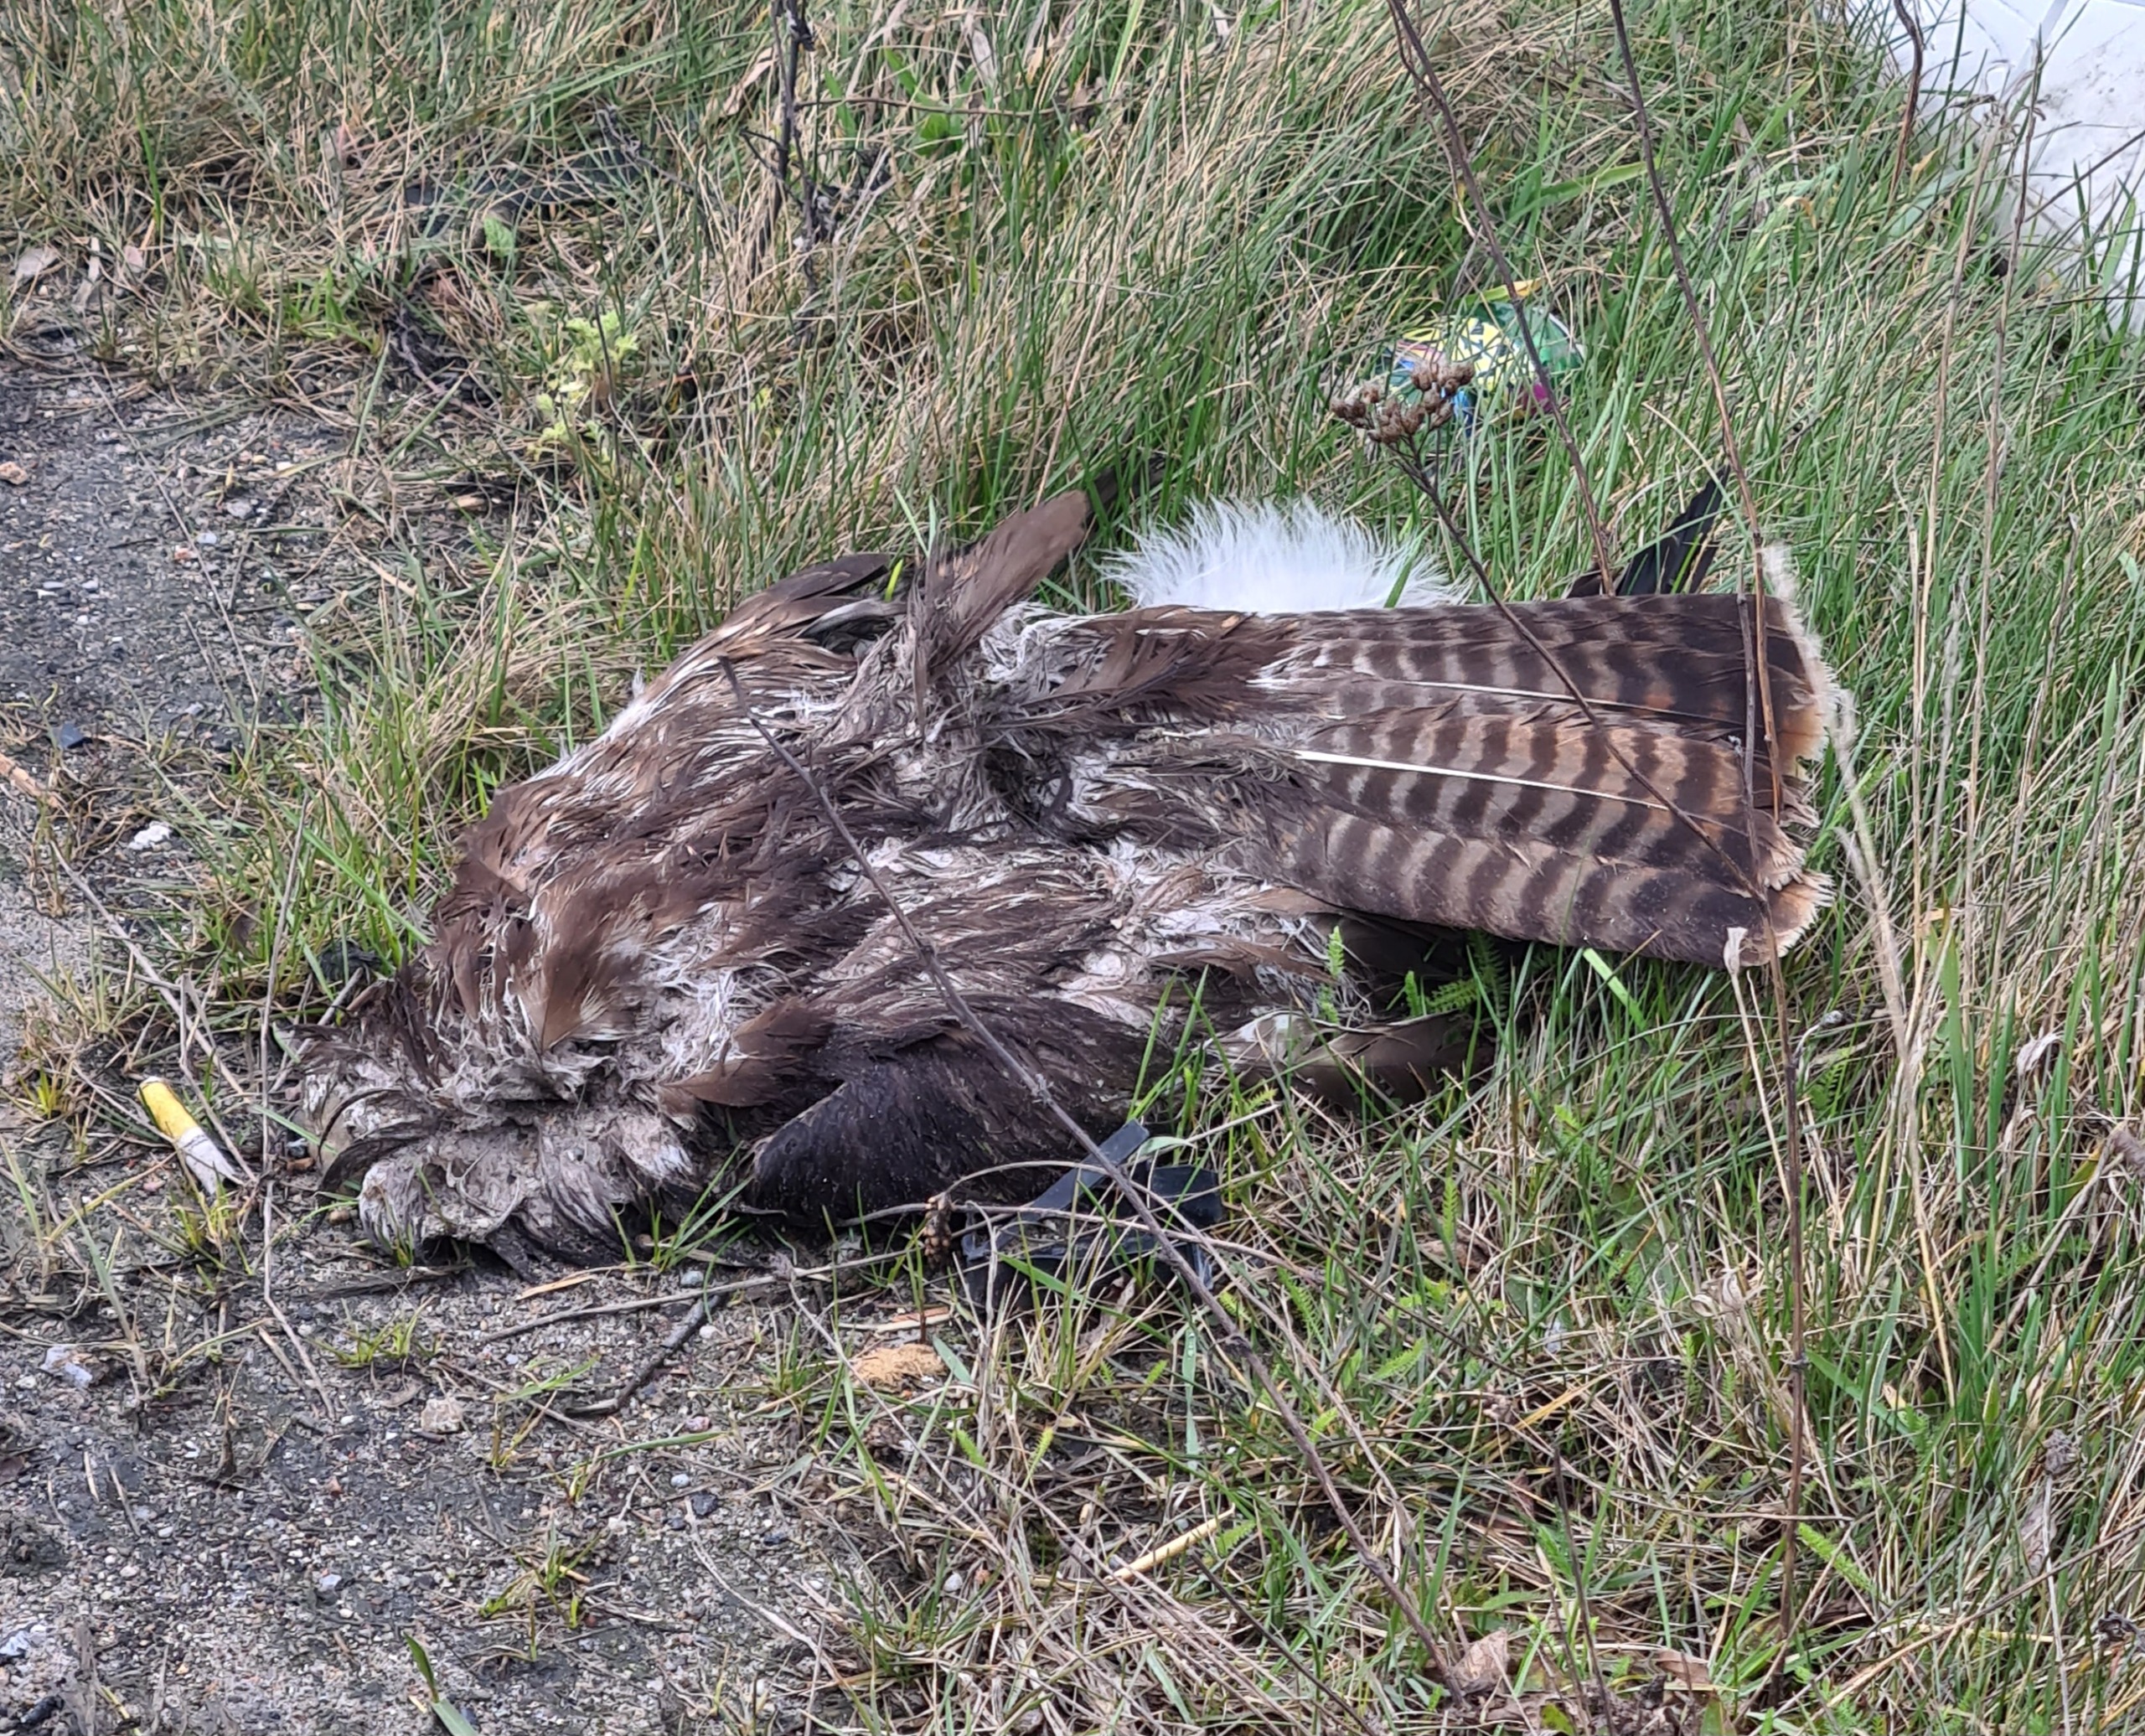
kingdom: Animalia
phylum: Chordata
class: Aves
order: Accipitriformes
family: Accipitridae
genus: Buteo
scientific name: Buteo buteo
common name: Musvåge
